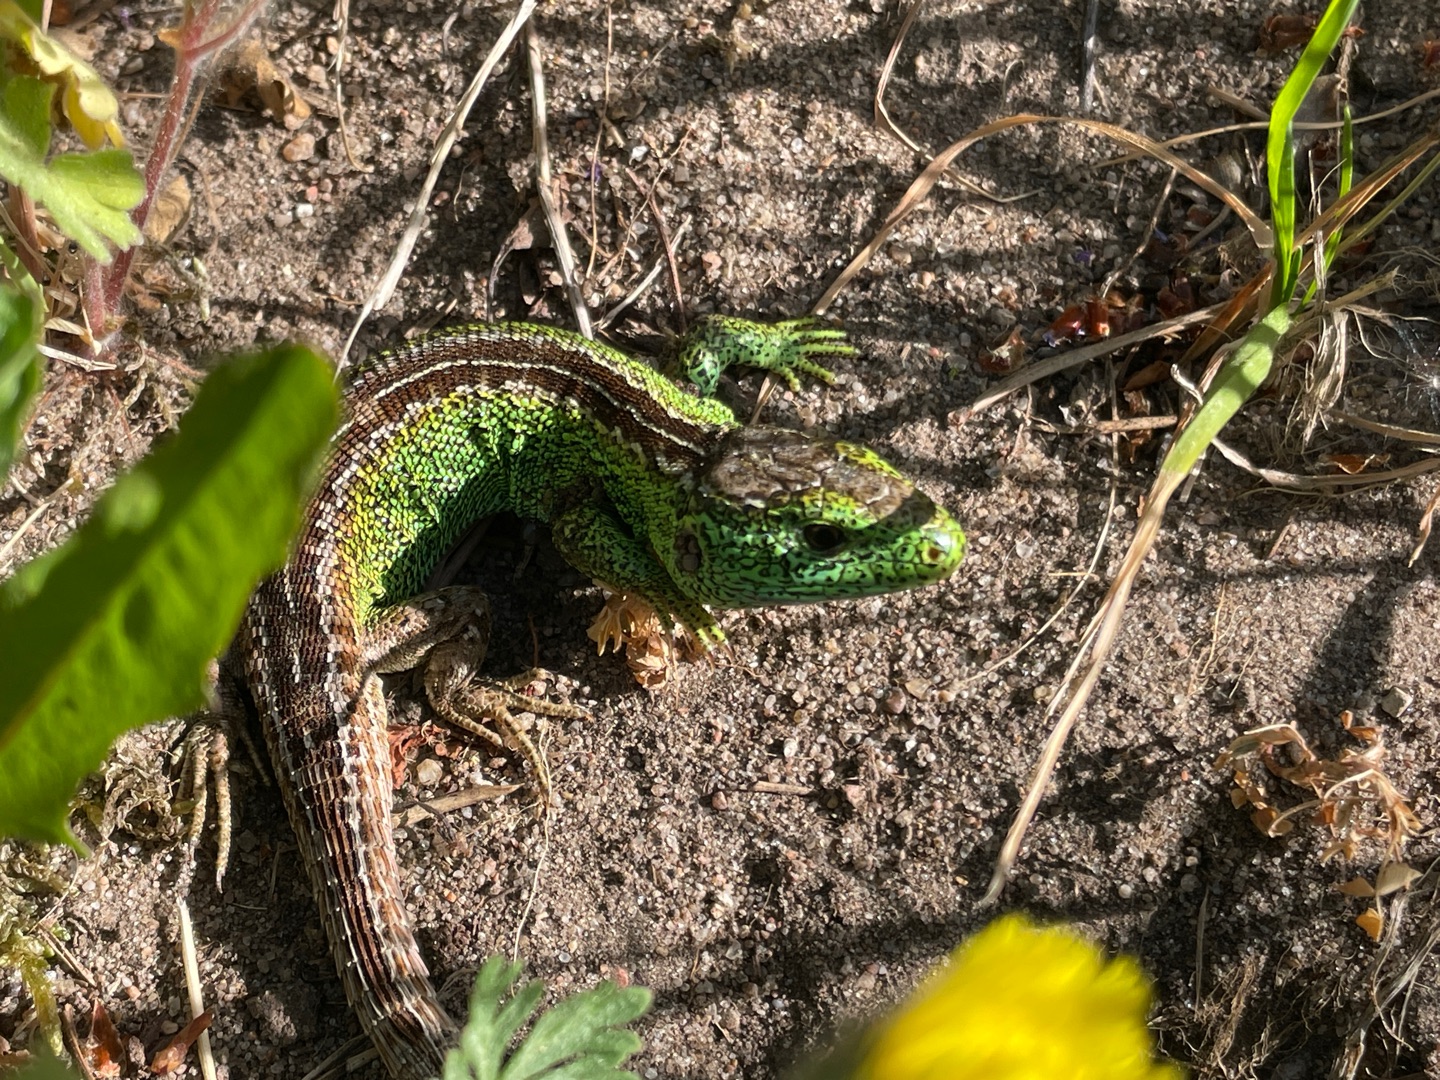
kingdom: Animalia
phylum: Chordata
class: Squamata
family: Lacertidae
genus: Lacerta
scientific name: Lacerta agilis
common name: Markfirben
